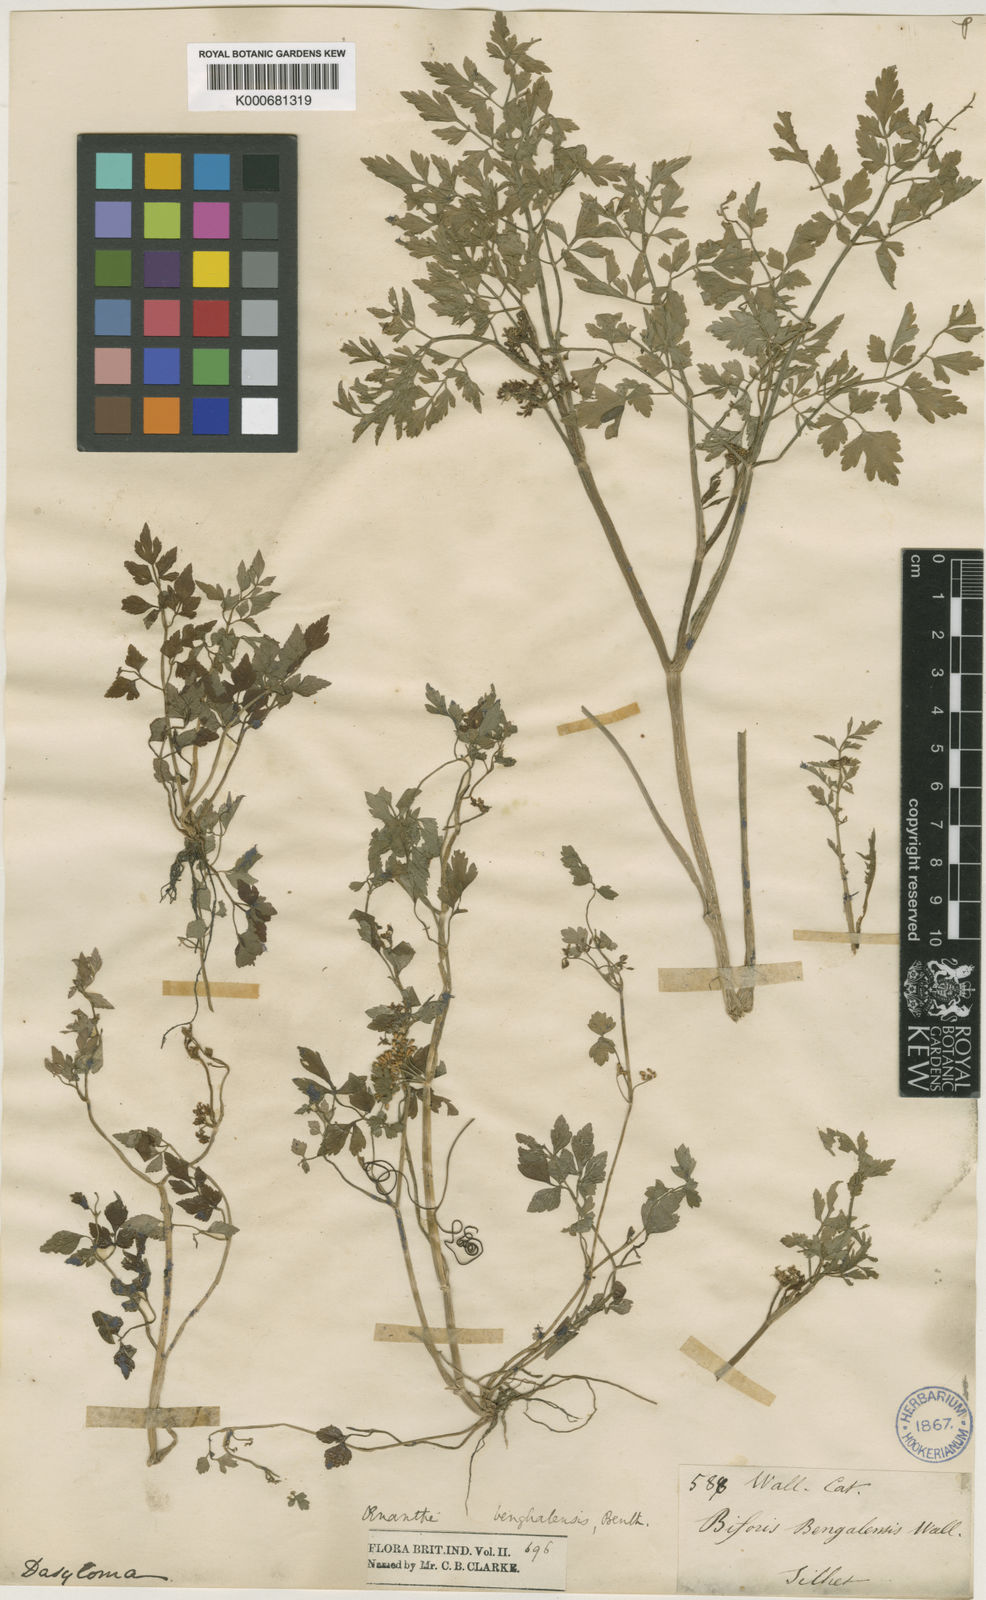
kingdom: Plantae
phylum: Tracheophyta
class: Magnoliopsida
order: Apiales
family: Apiaceae
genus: Oenanthe
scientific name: Oenanthe
